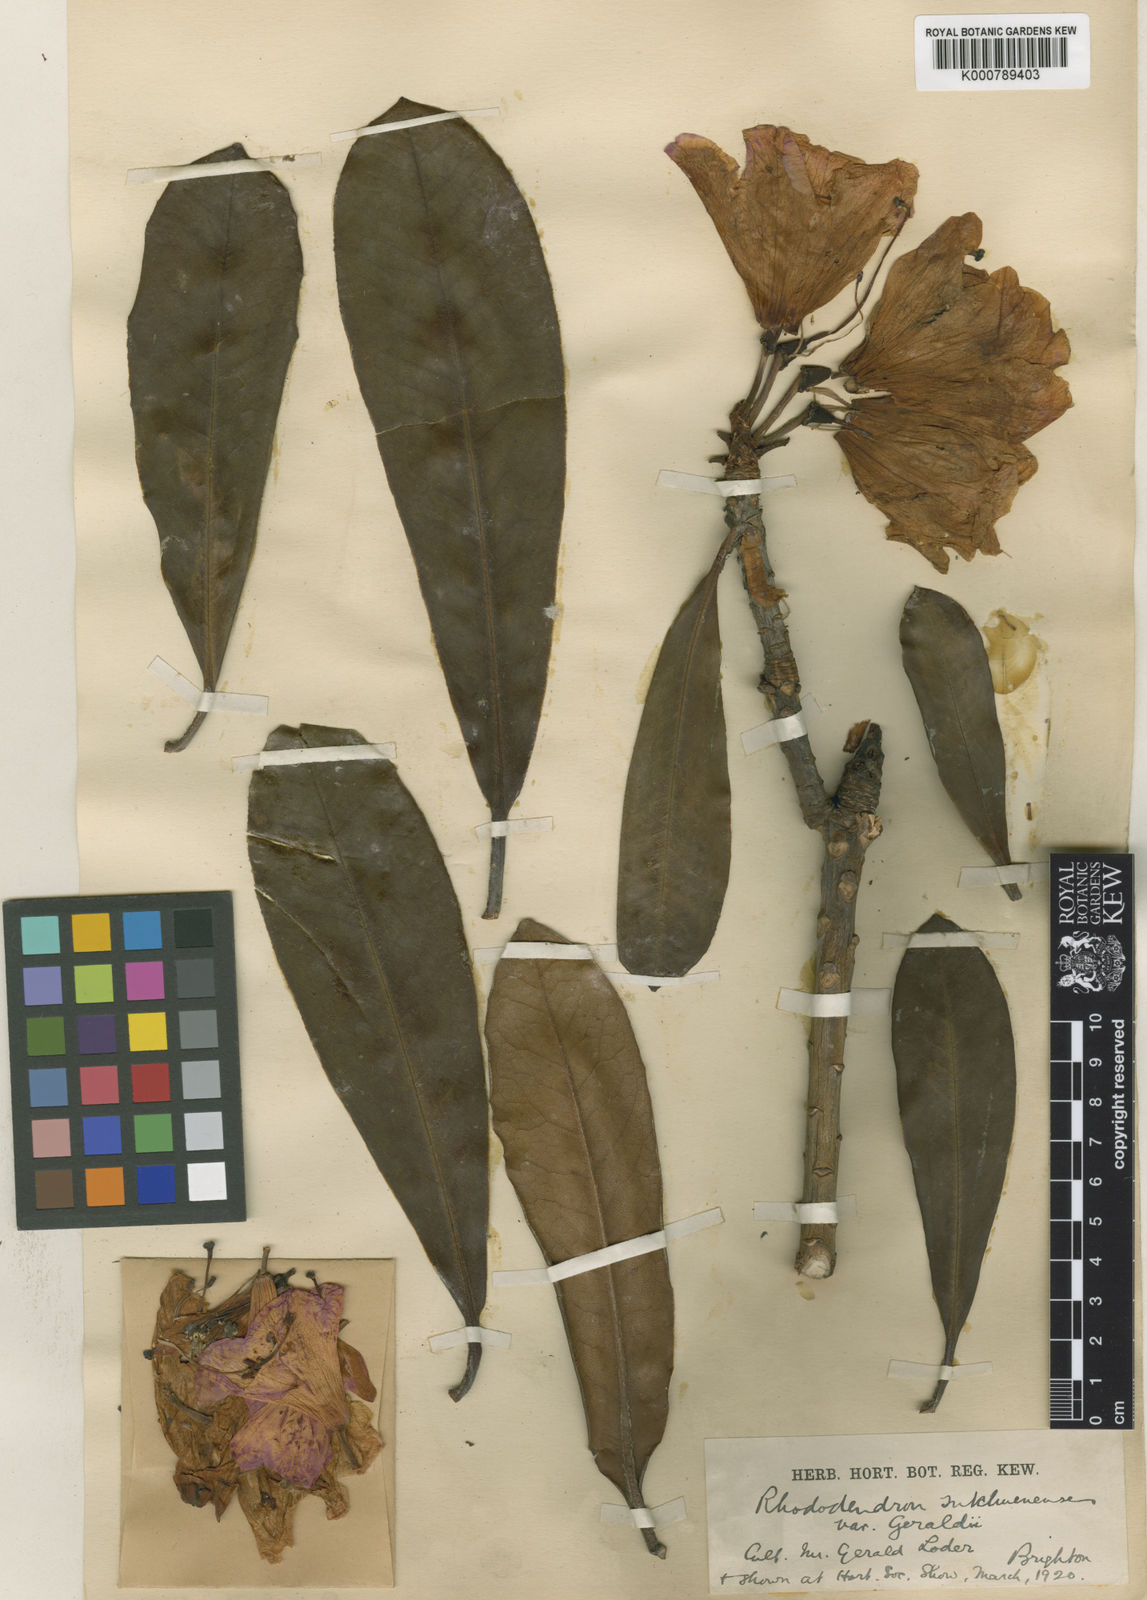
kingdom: Plantae
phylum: Tracheophyta
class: Magnoliopsida
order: Ericales
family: Ericaceae
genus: Rhododendron
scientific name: Rhododendron
